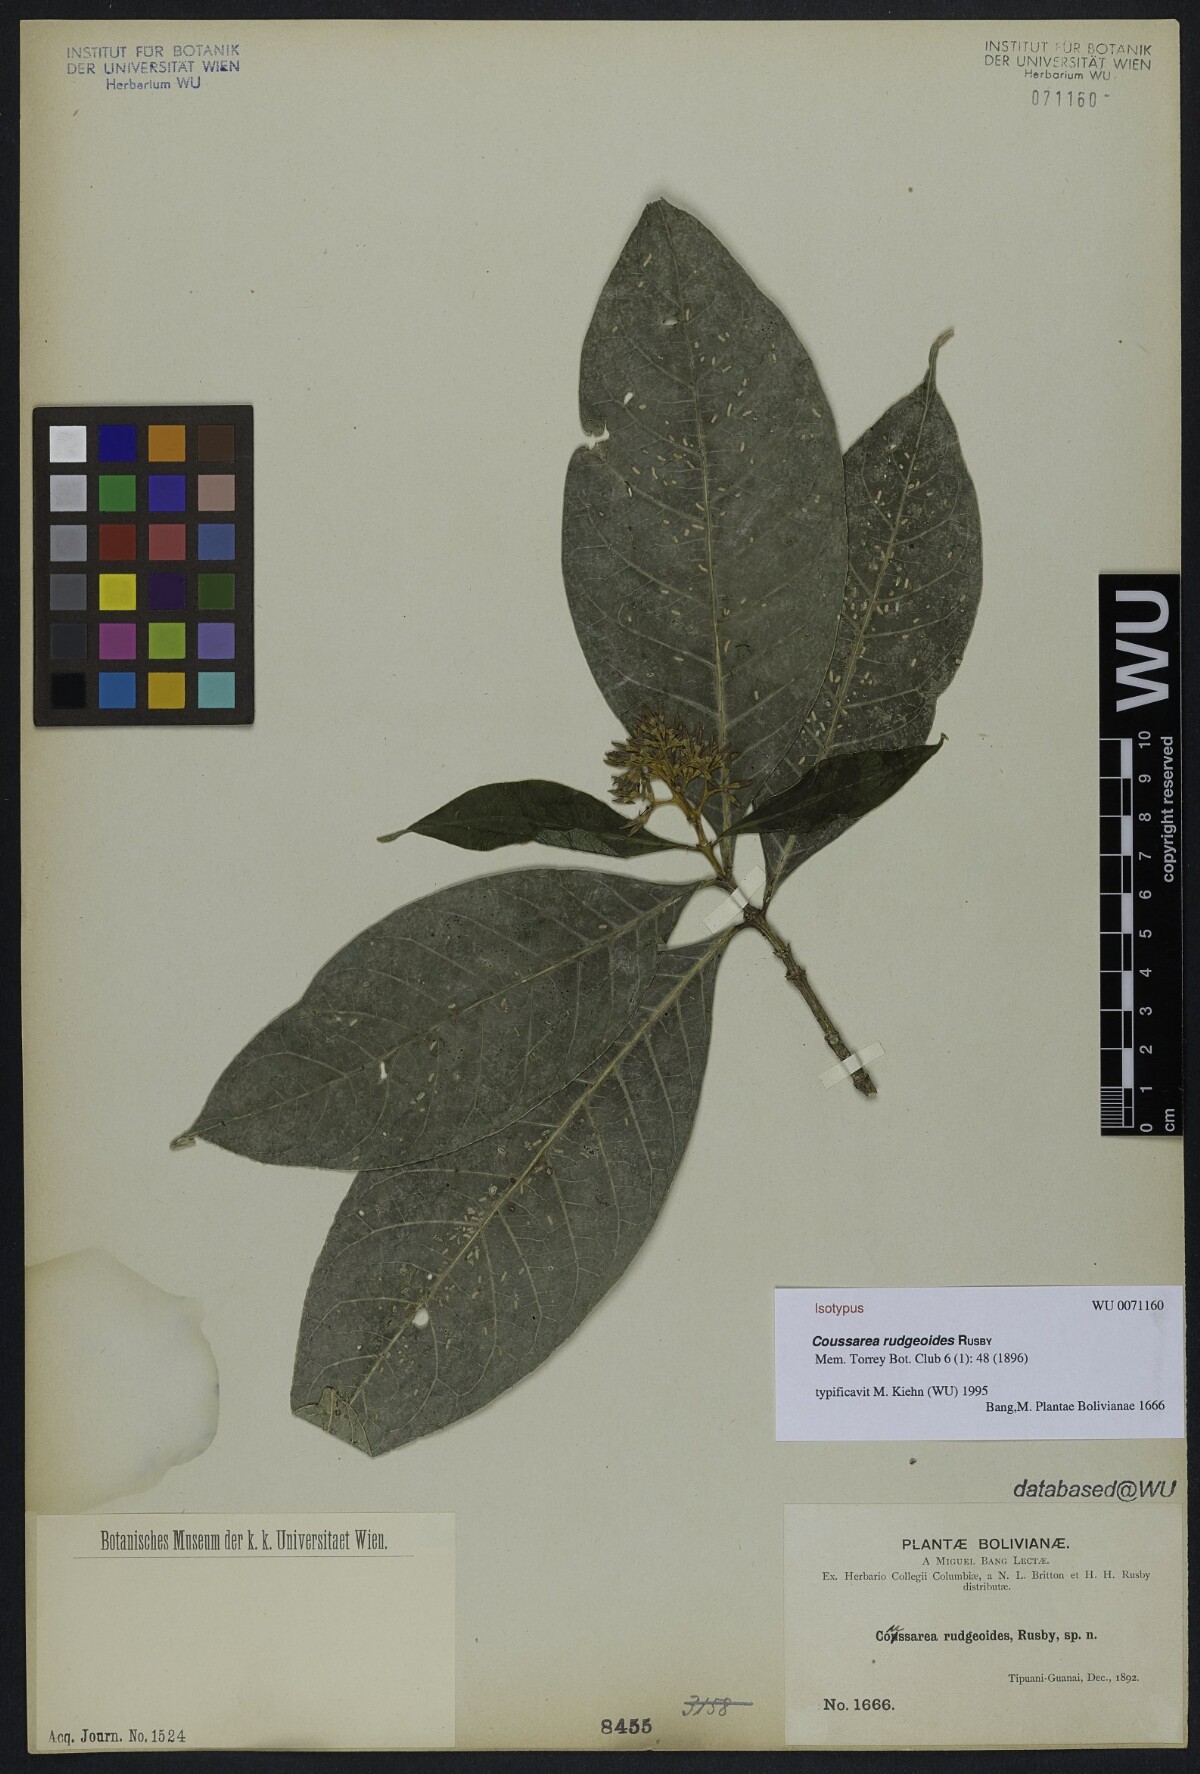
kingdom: Plantae
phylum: Tracheophyta
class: Magnoliopsida
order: Gentianales
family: Rubiaceae
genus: Coussarea
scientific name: Coussarea rudgeoides
